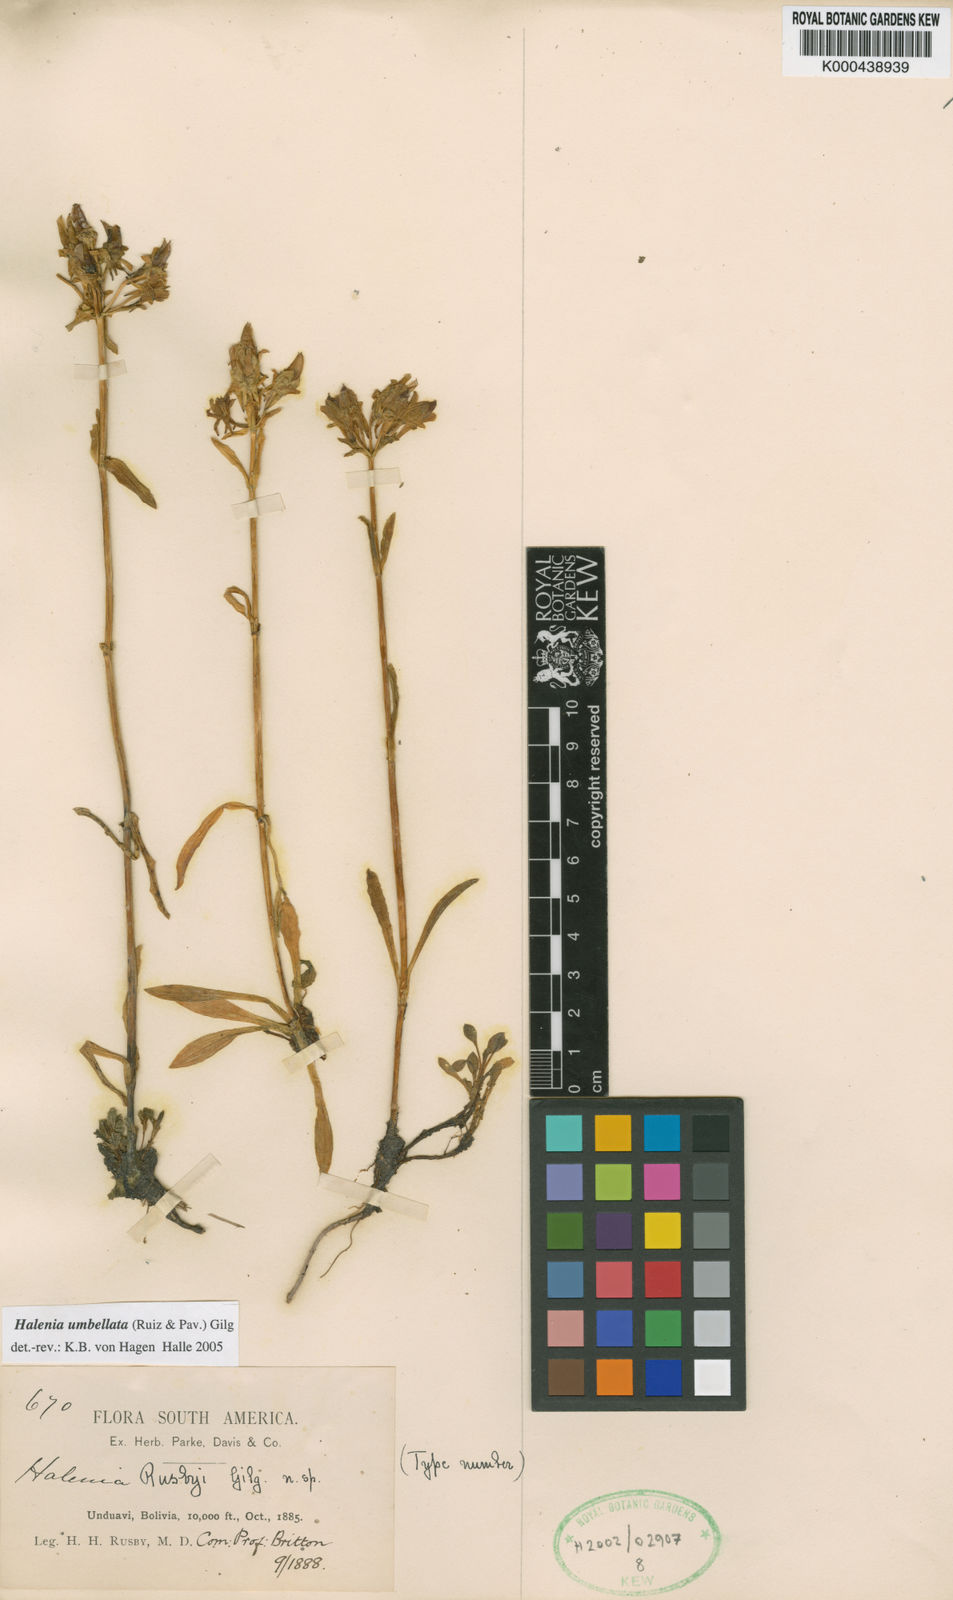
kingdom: Plantae
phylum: Tracheophyta
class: Magnoliopsida
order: Gentianales
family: Gentianaceae
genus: Halenia
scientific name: Halenia umbellata
